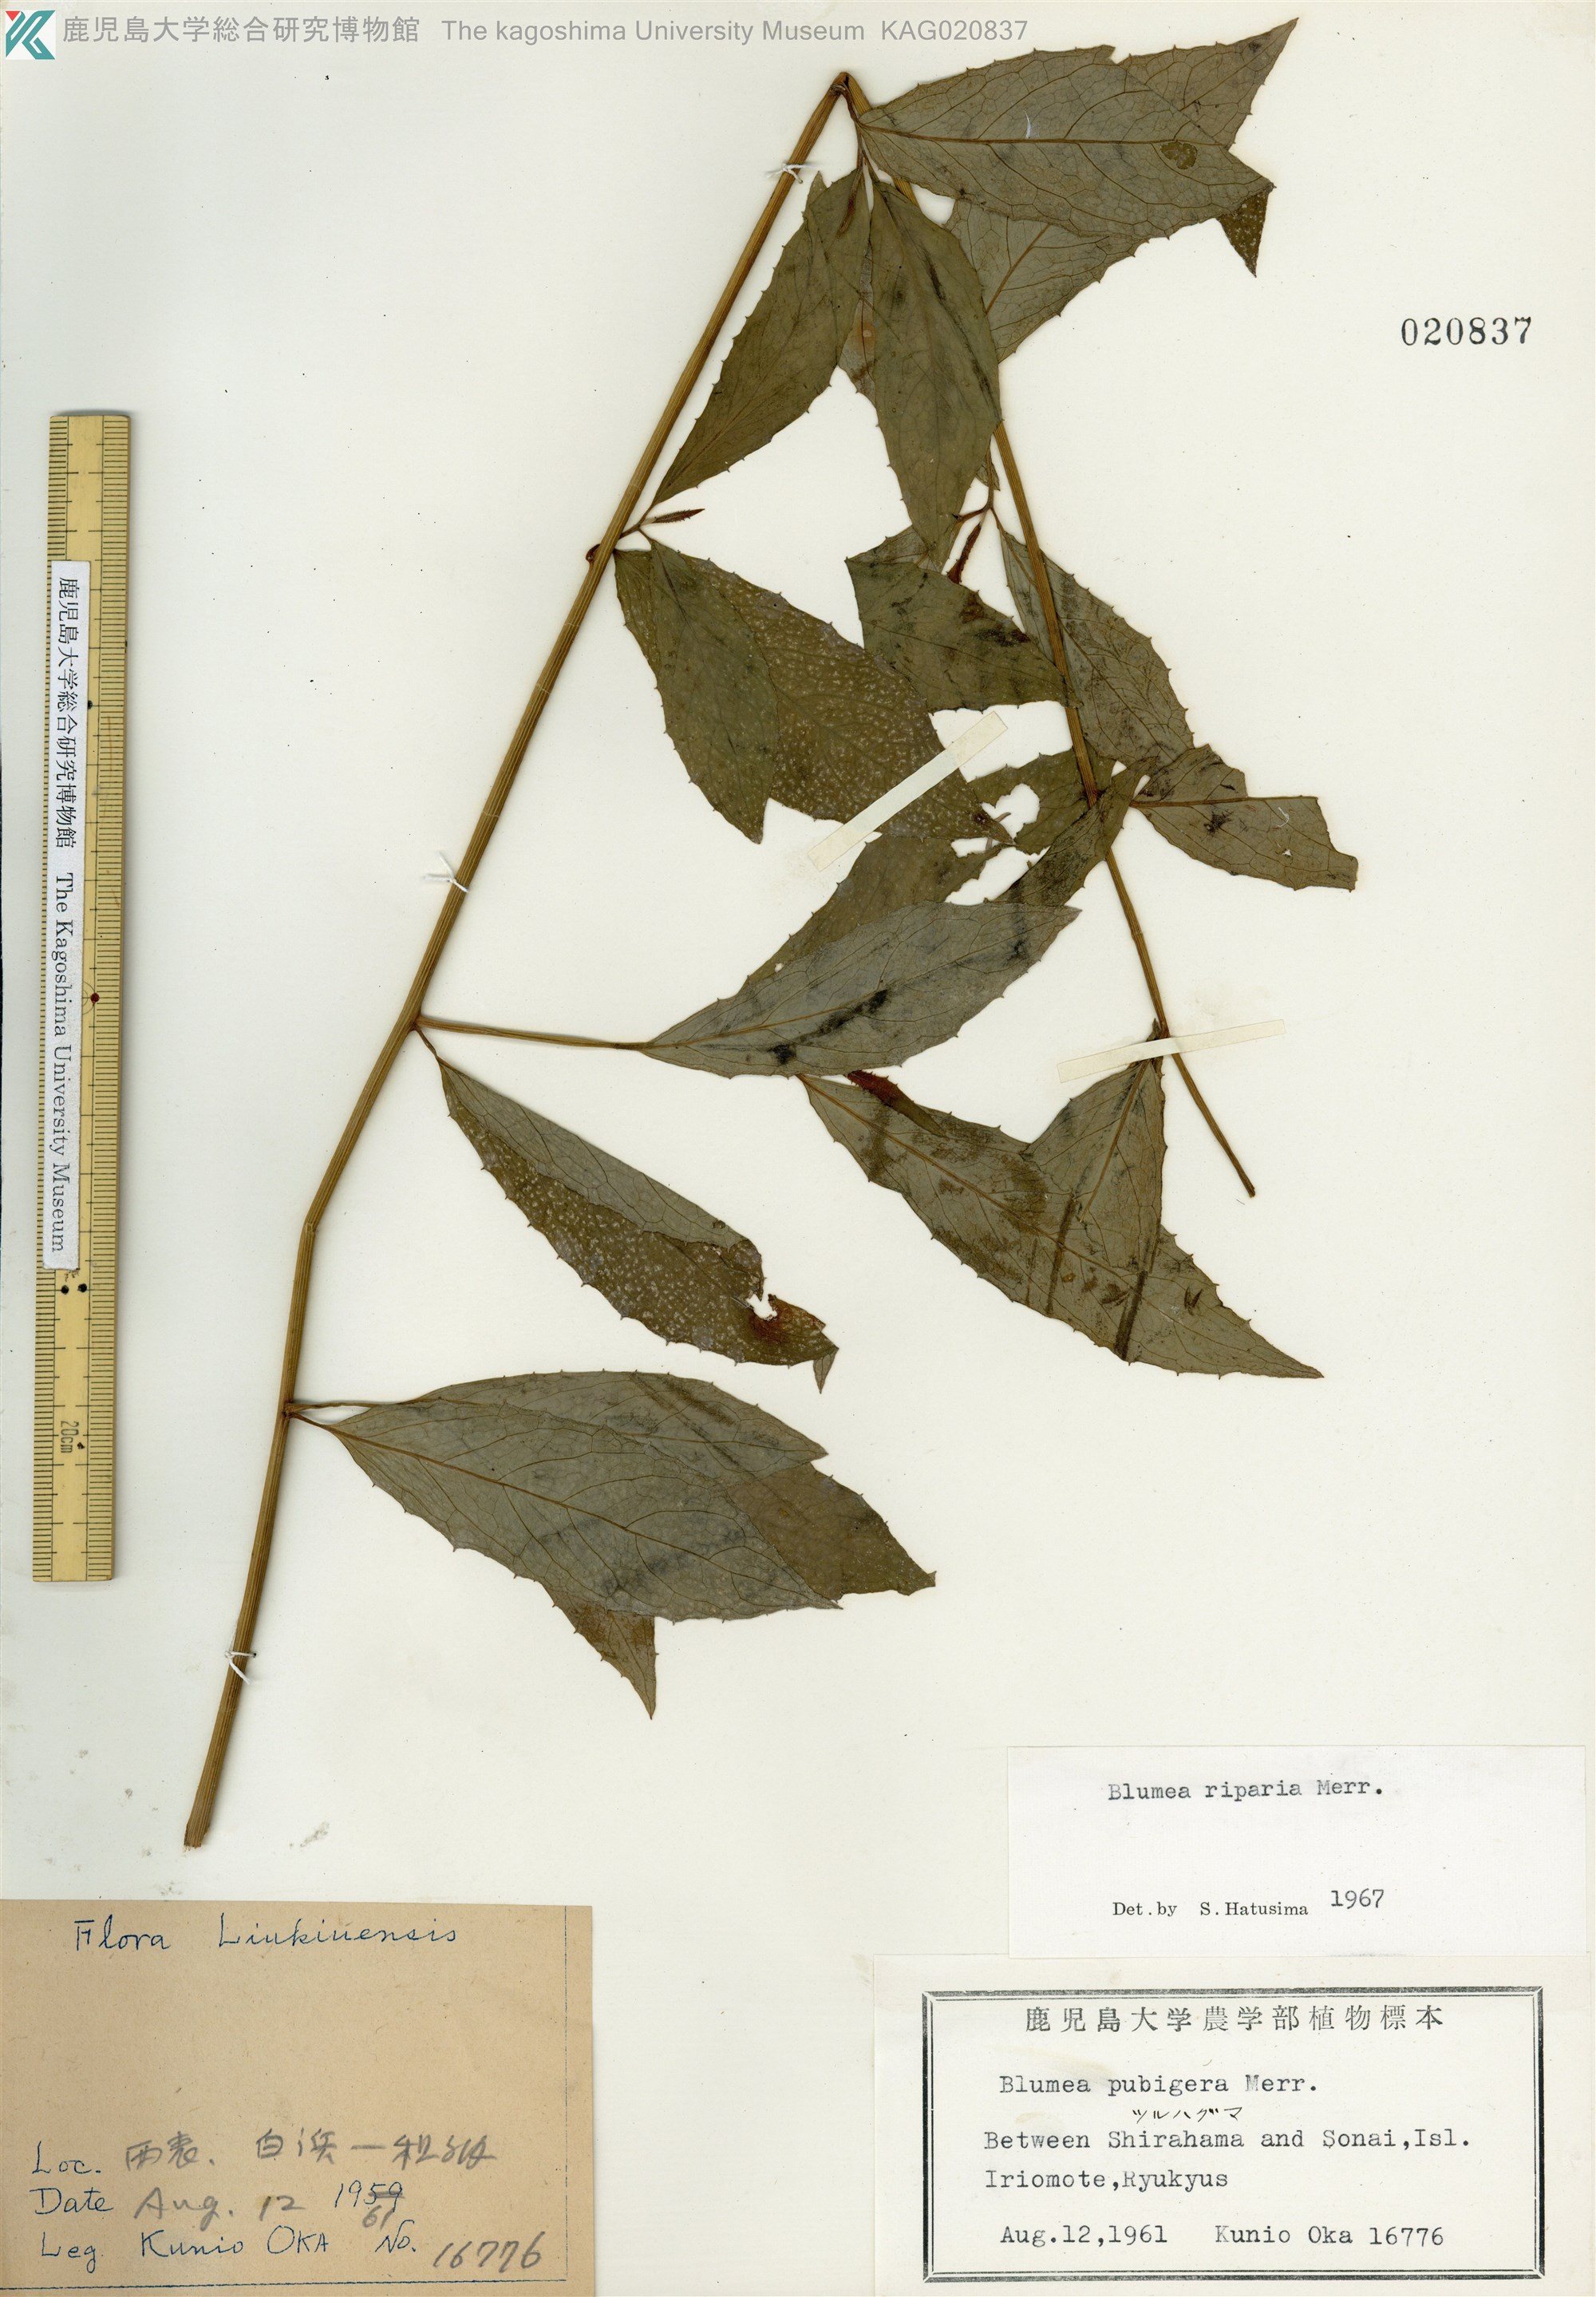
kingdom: Plantae
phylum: Tracheophyta
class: Magnoliopsida
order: Asterales
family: Asteraceae
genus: Blumea
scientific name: Blumea megacephala
